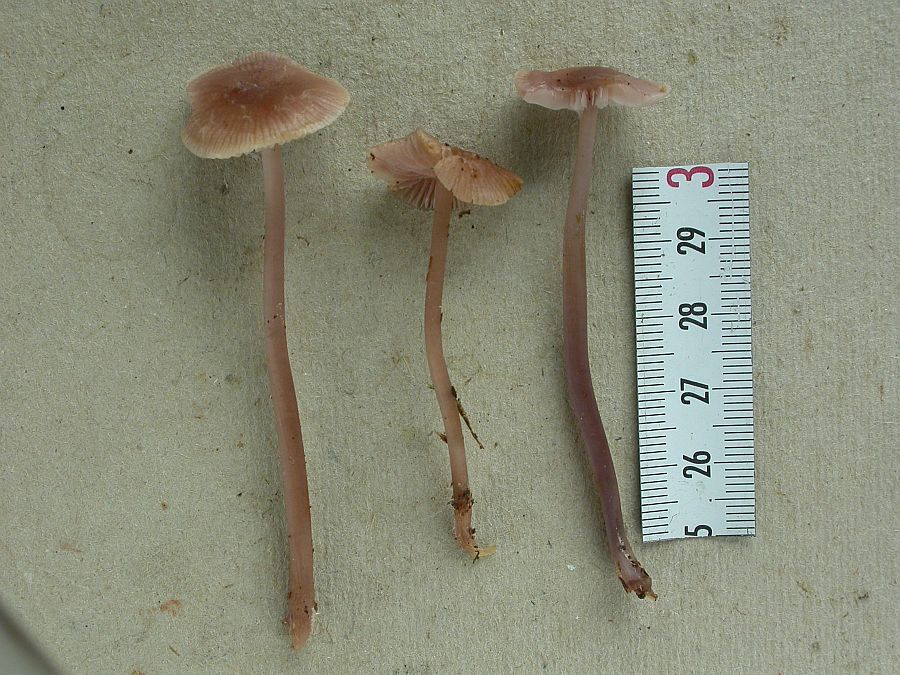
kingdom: Fungi
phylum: Basidiomycota
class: Agaricomycetes
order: Agaricales
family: Mycenaceae
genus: Mycena
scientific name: Mycena pearsoniana
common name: lillabrun huesvamp
